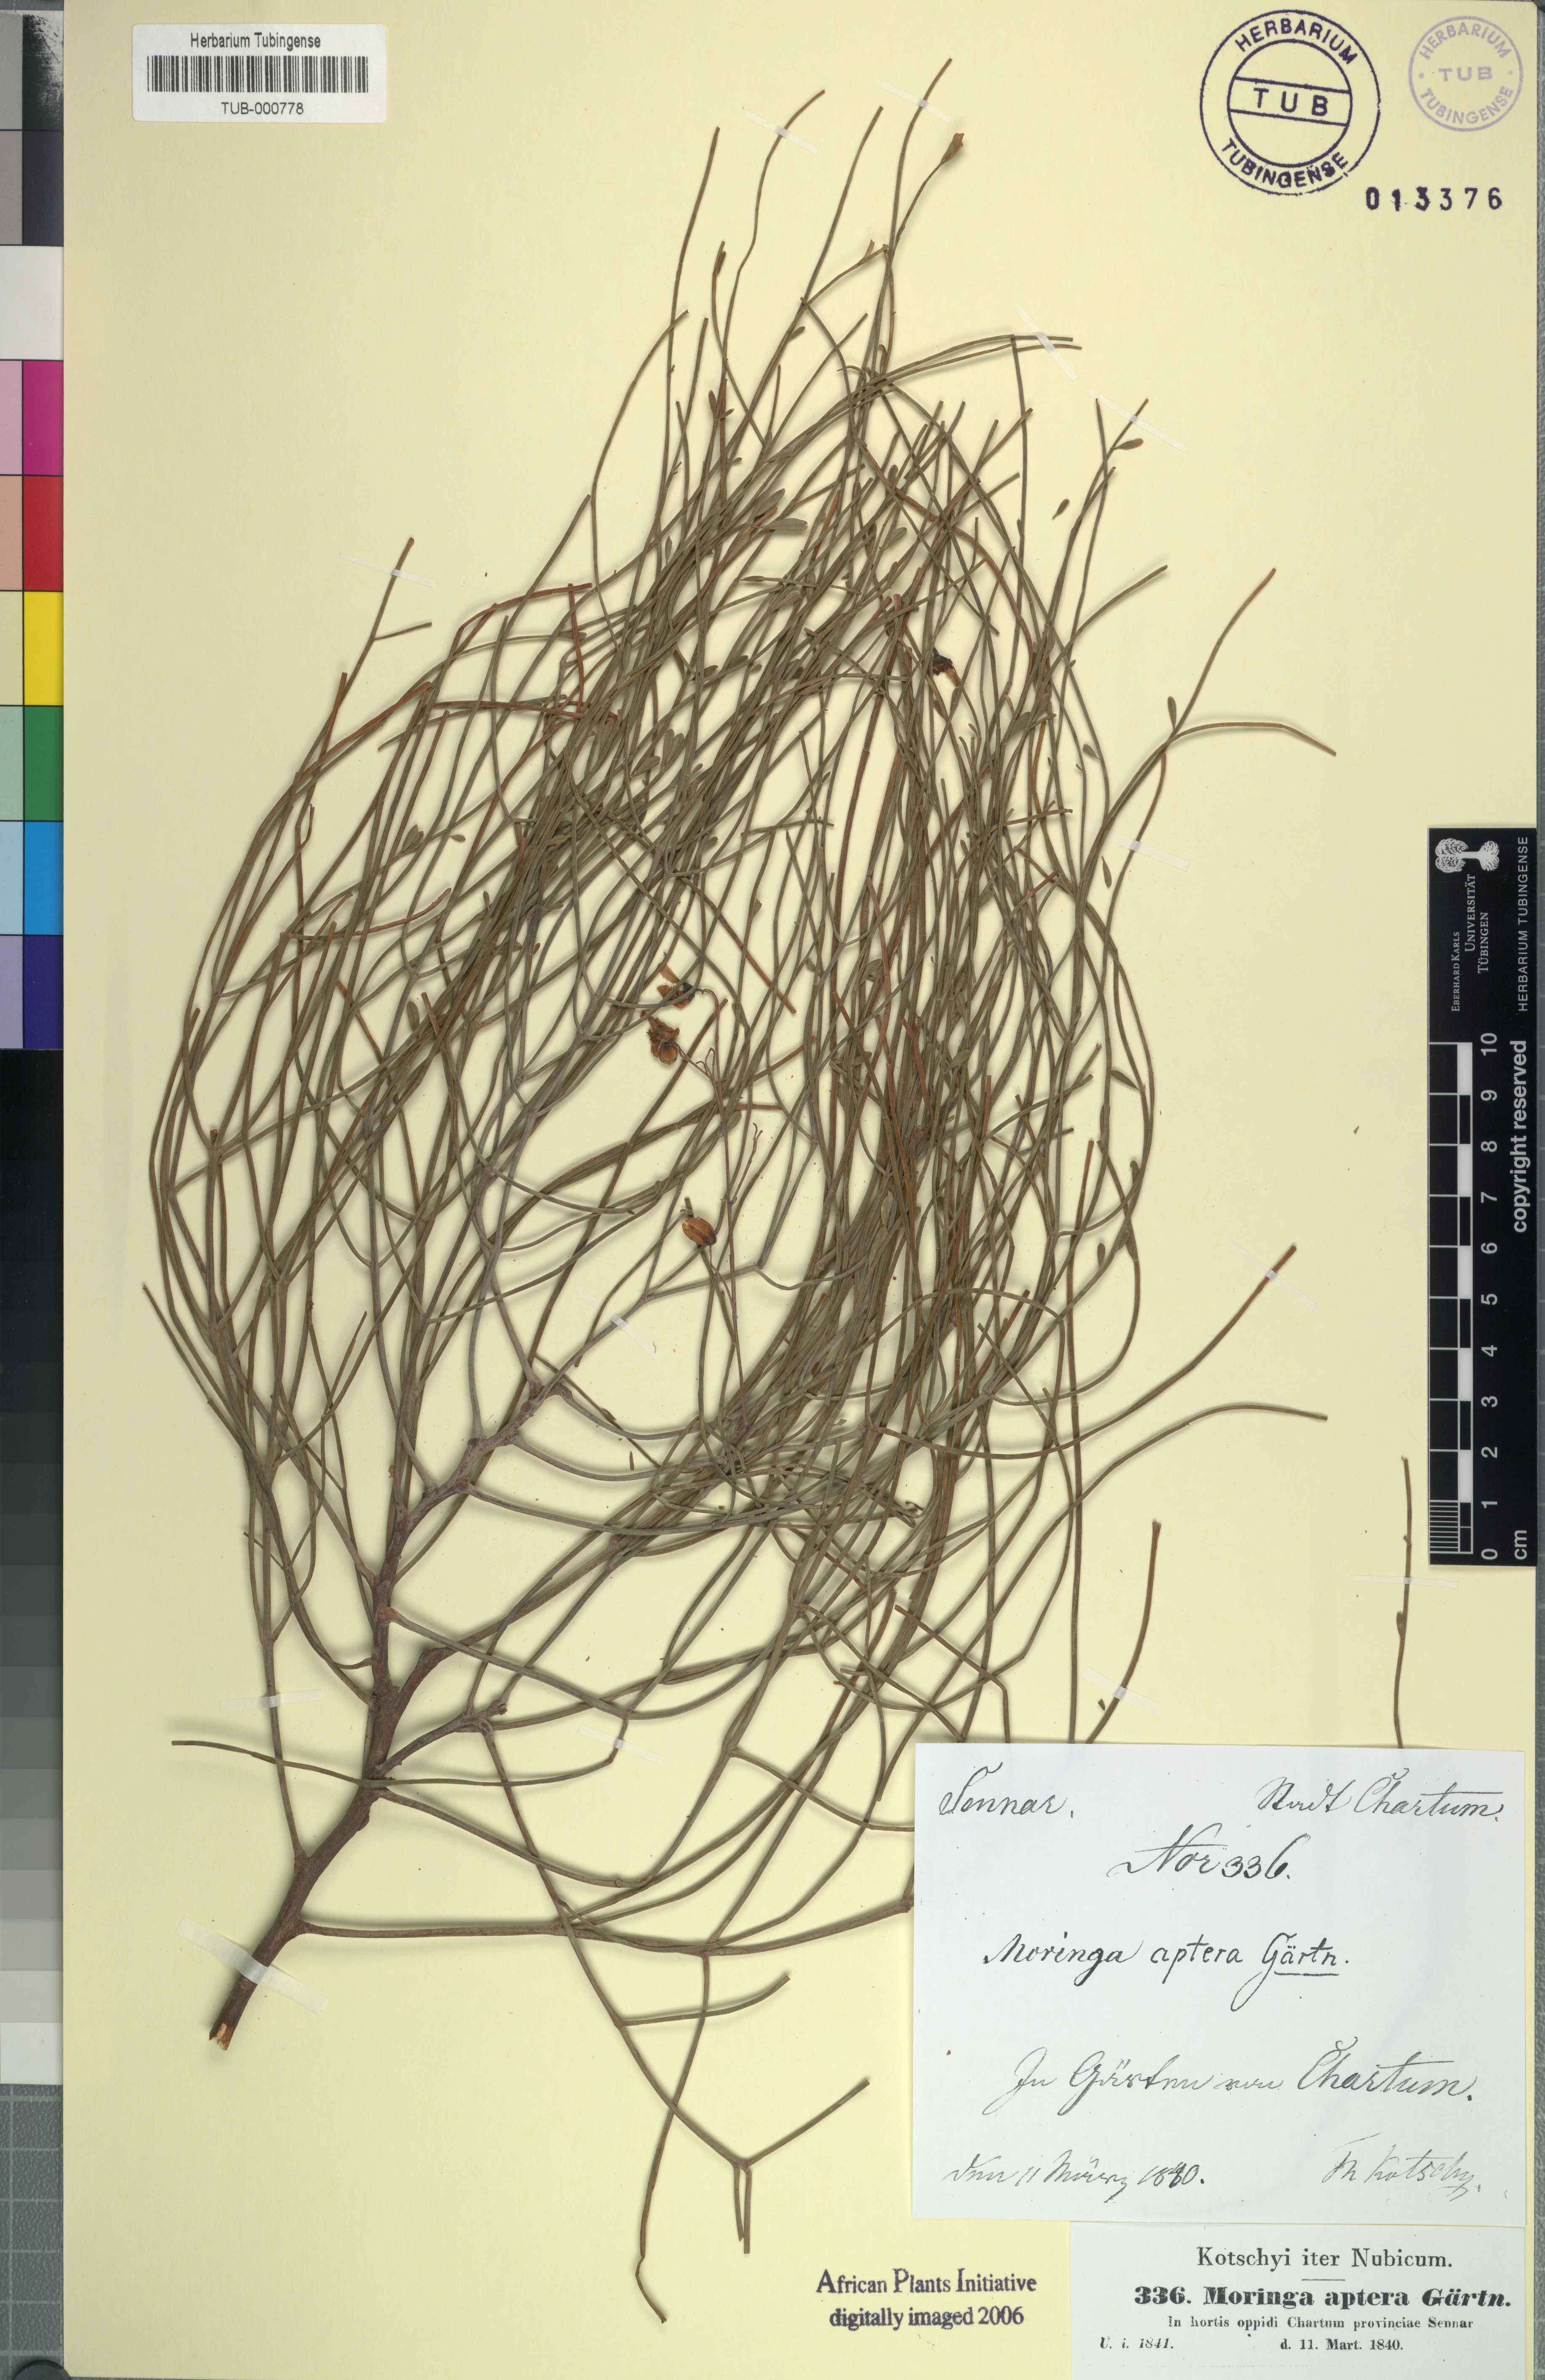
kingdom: Plantae
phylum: Tracheophyta
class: Magnoliopsida
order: Brassicales
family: Moringaceae
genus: Moringa
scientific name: Moringa peregrina
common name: Wild drumstick tree
